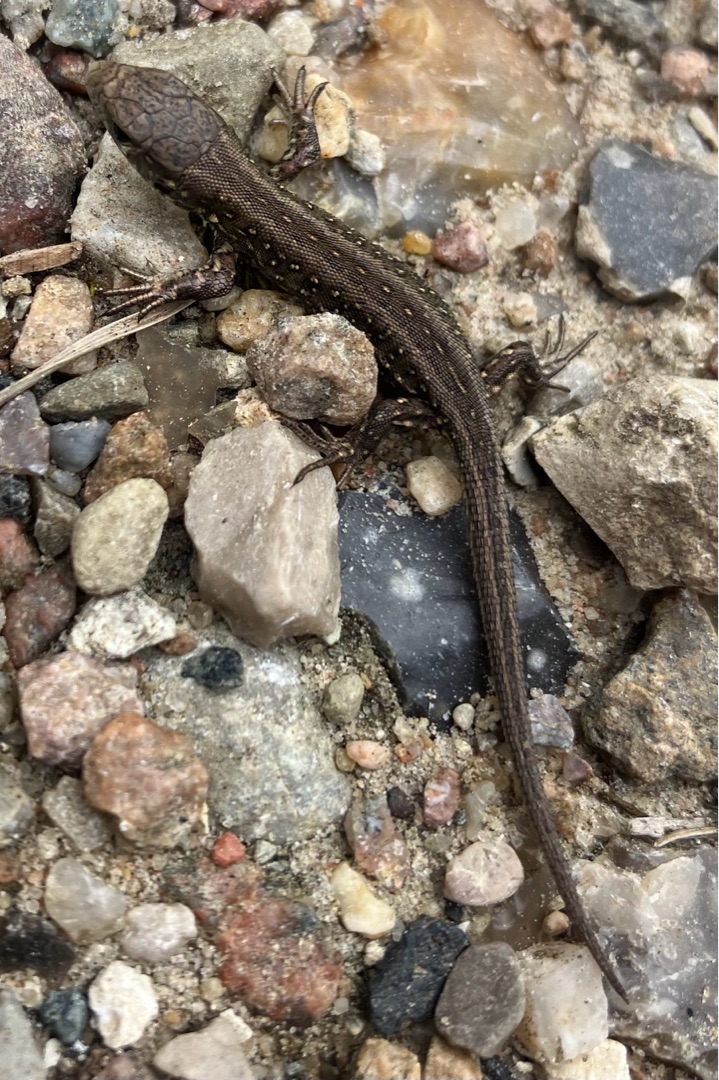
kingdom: Animalia
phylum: Chordata
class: Squamata
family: Lacertidae
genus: Lacerta
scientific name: Lacerta agilis
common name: Markfirben
